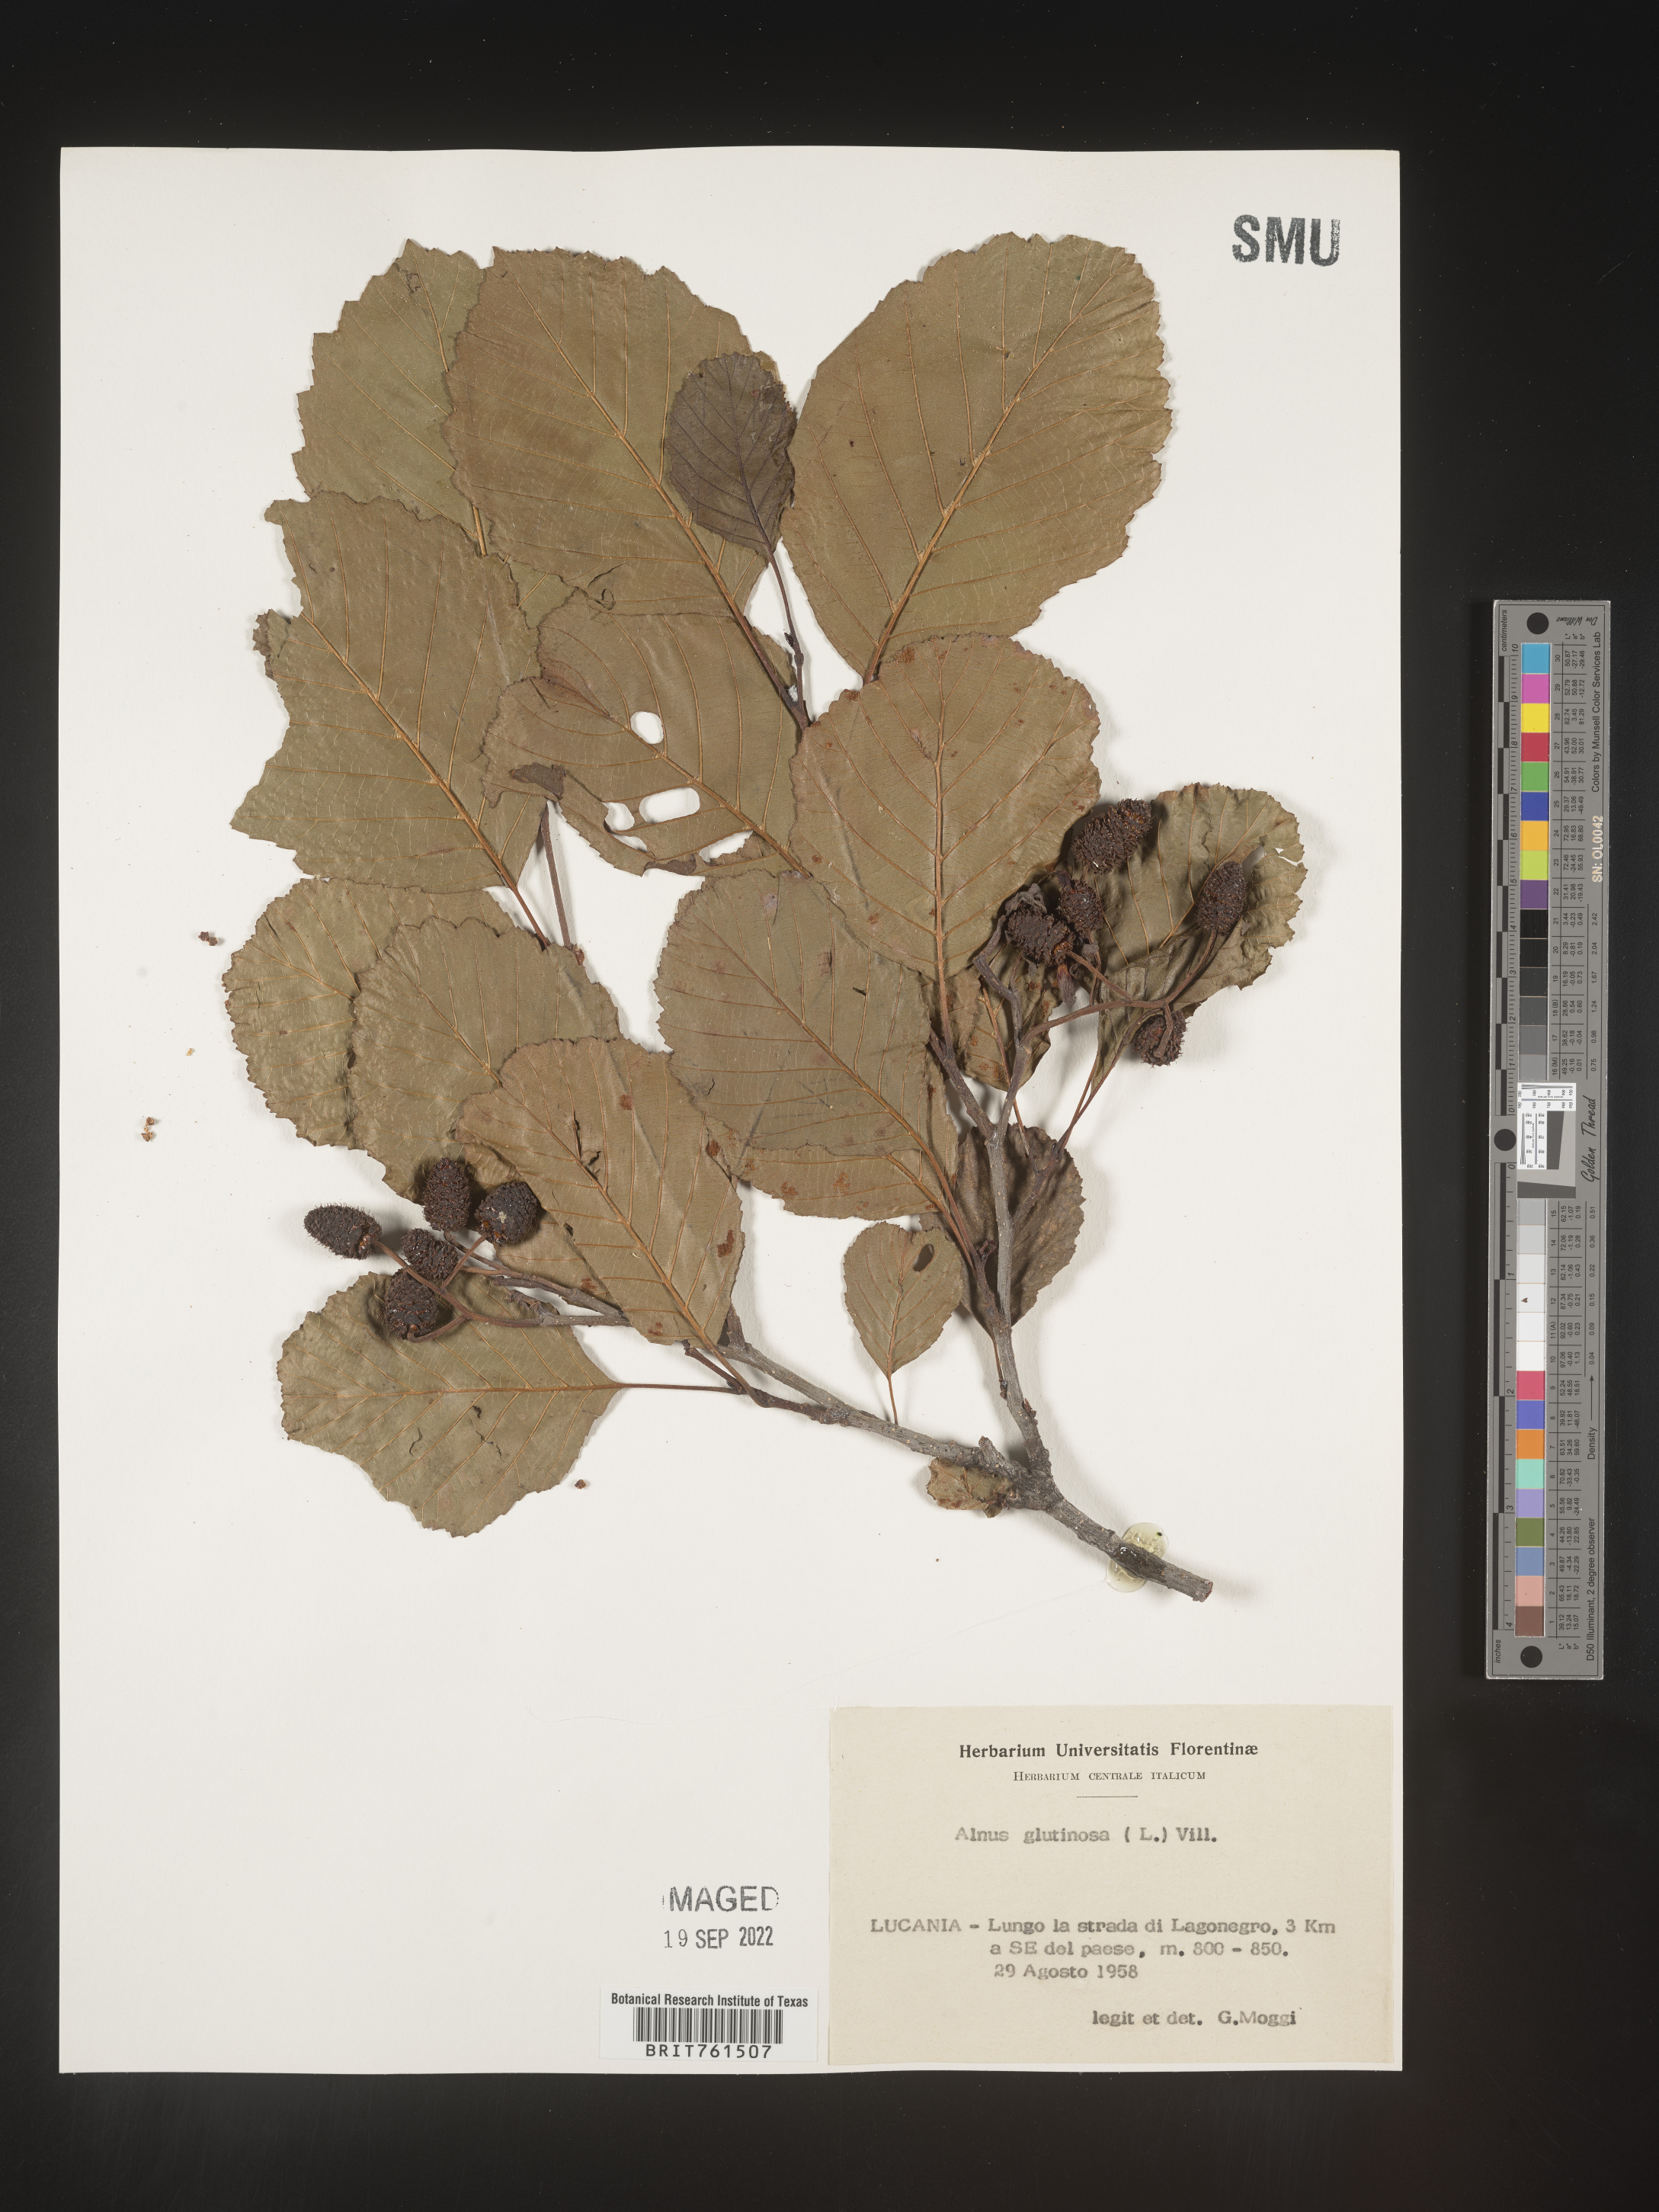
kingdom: Plantae
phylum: Tracheophyta
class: Magnoliopsida
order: Fagales
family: Betulaceae
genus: Alnus
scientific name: Alnus
